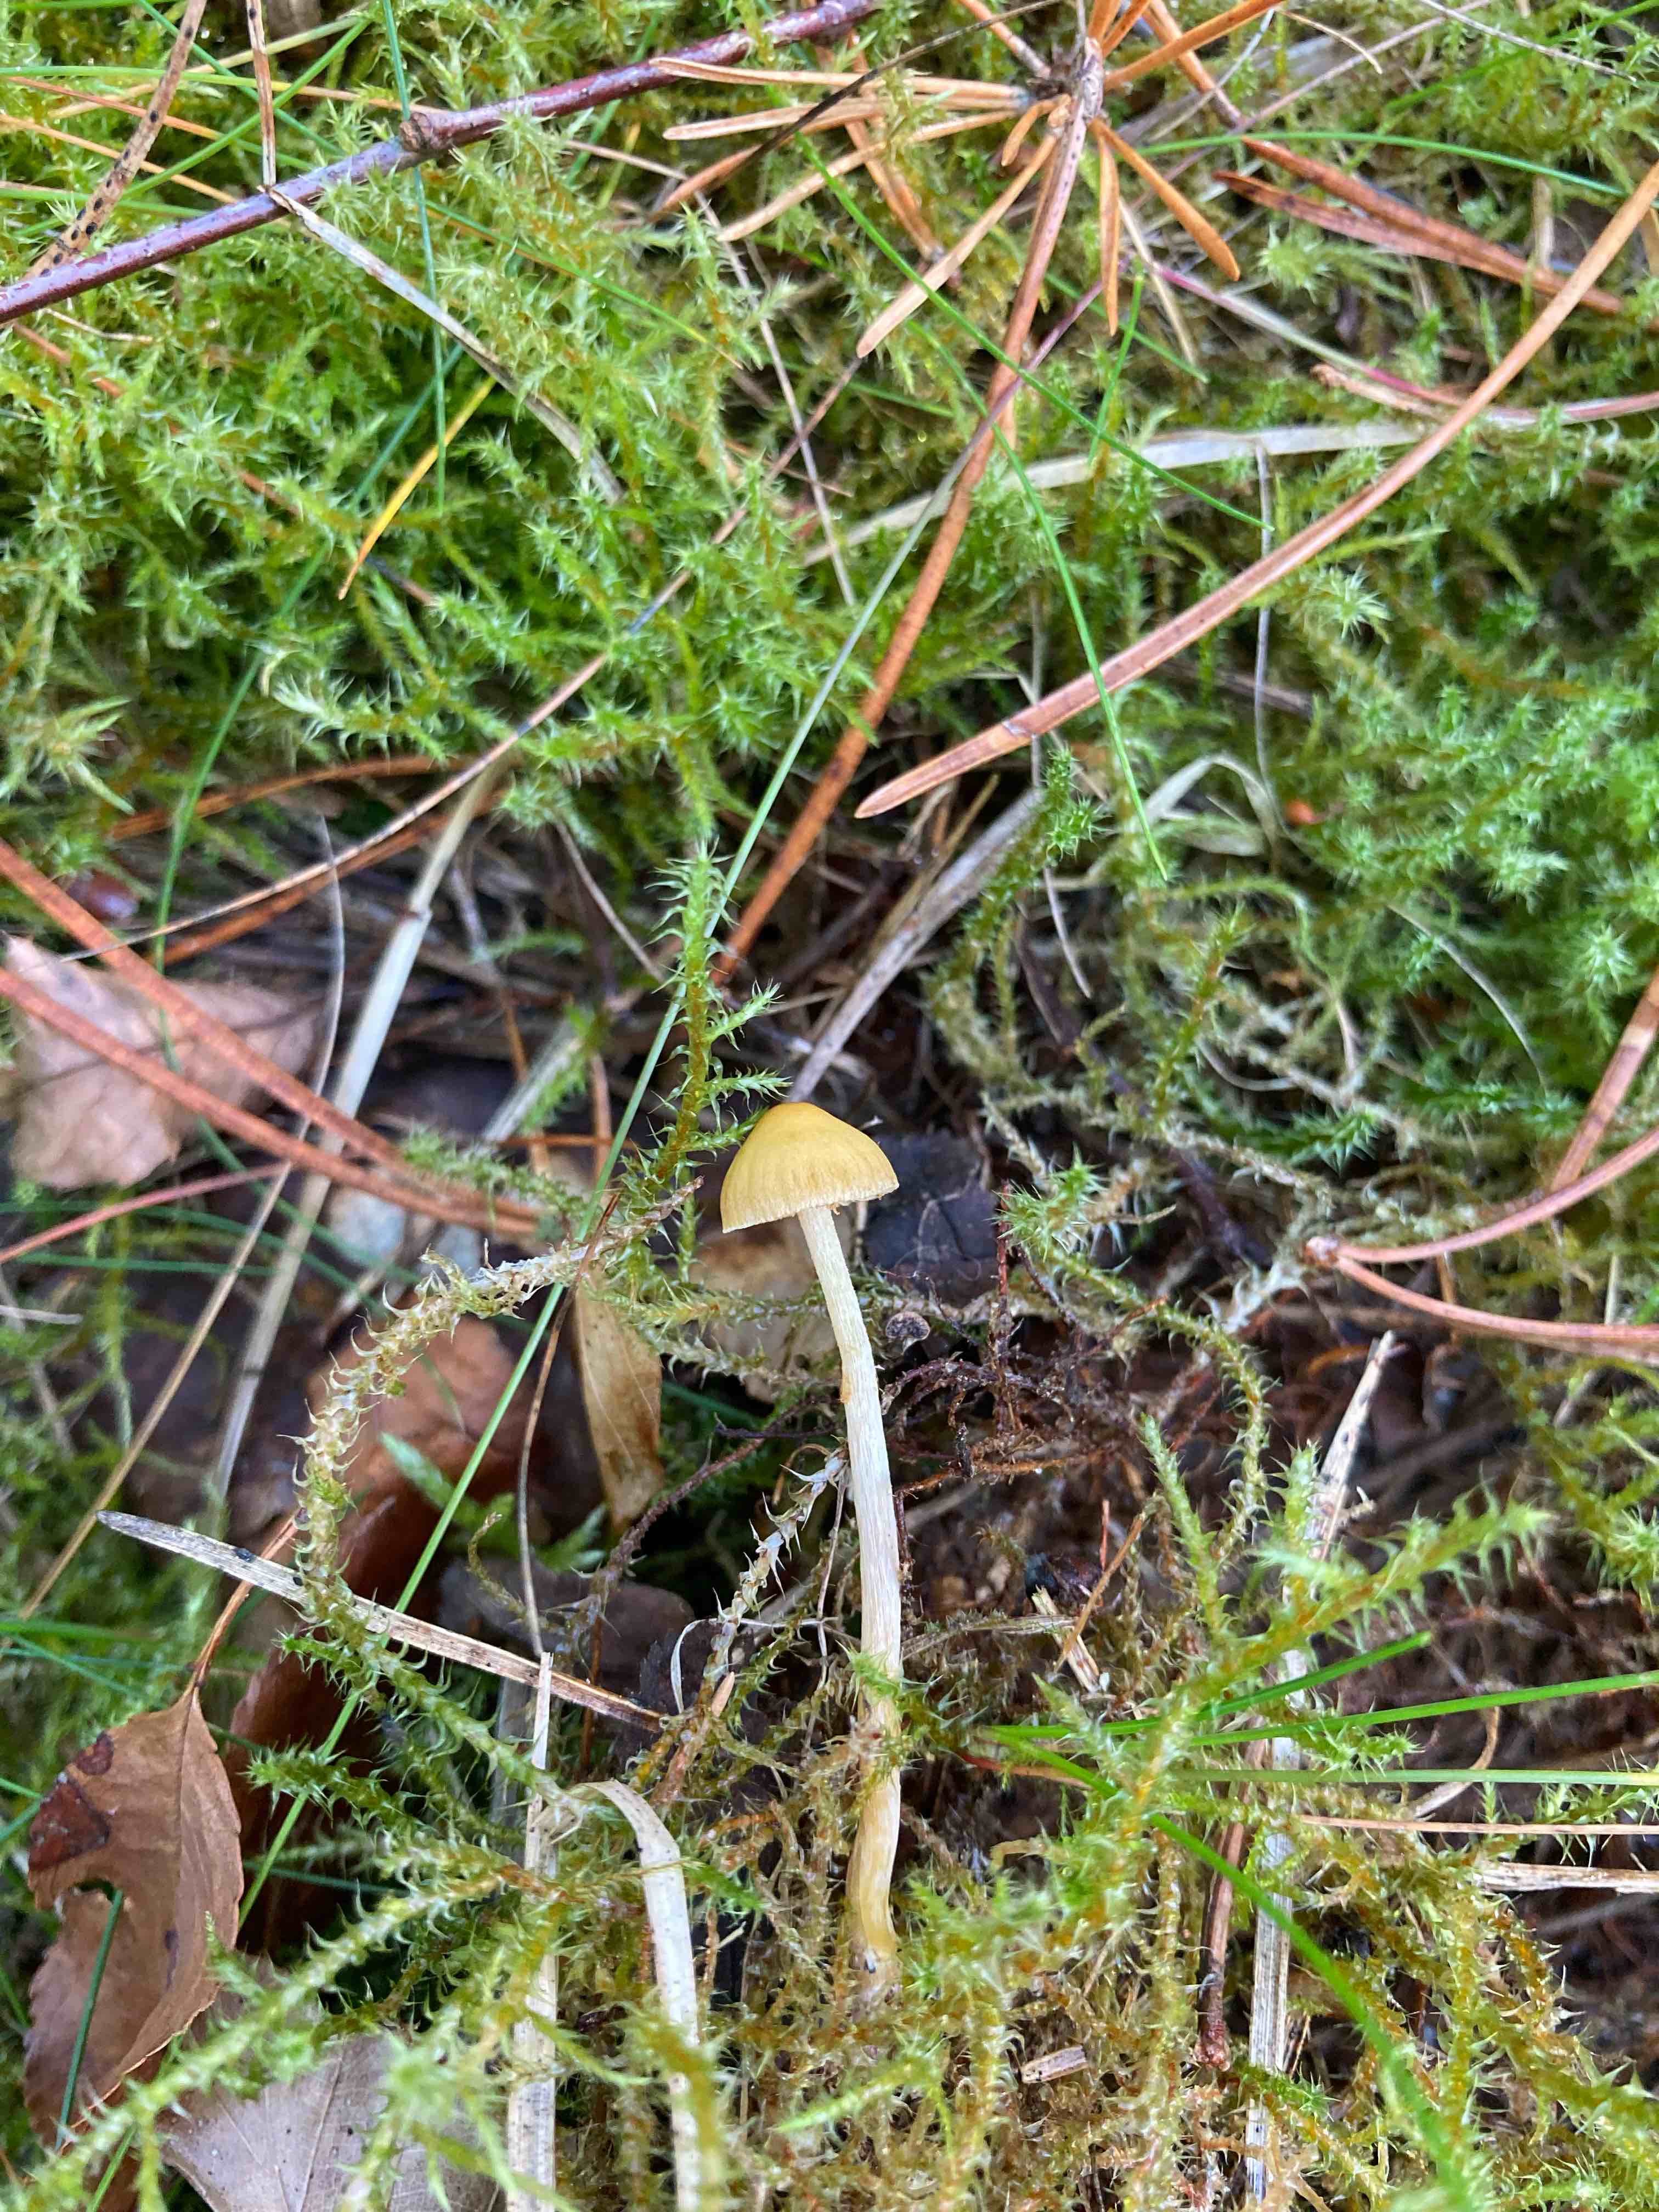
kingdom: Fungi
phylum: Basidiomycota
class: Agaricomycetes
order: Agaricales
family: Hymenogastraceae
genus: Galerina
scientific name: Galerina
